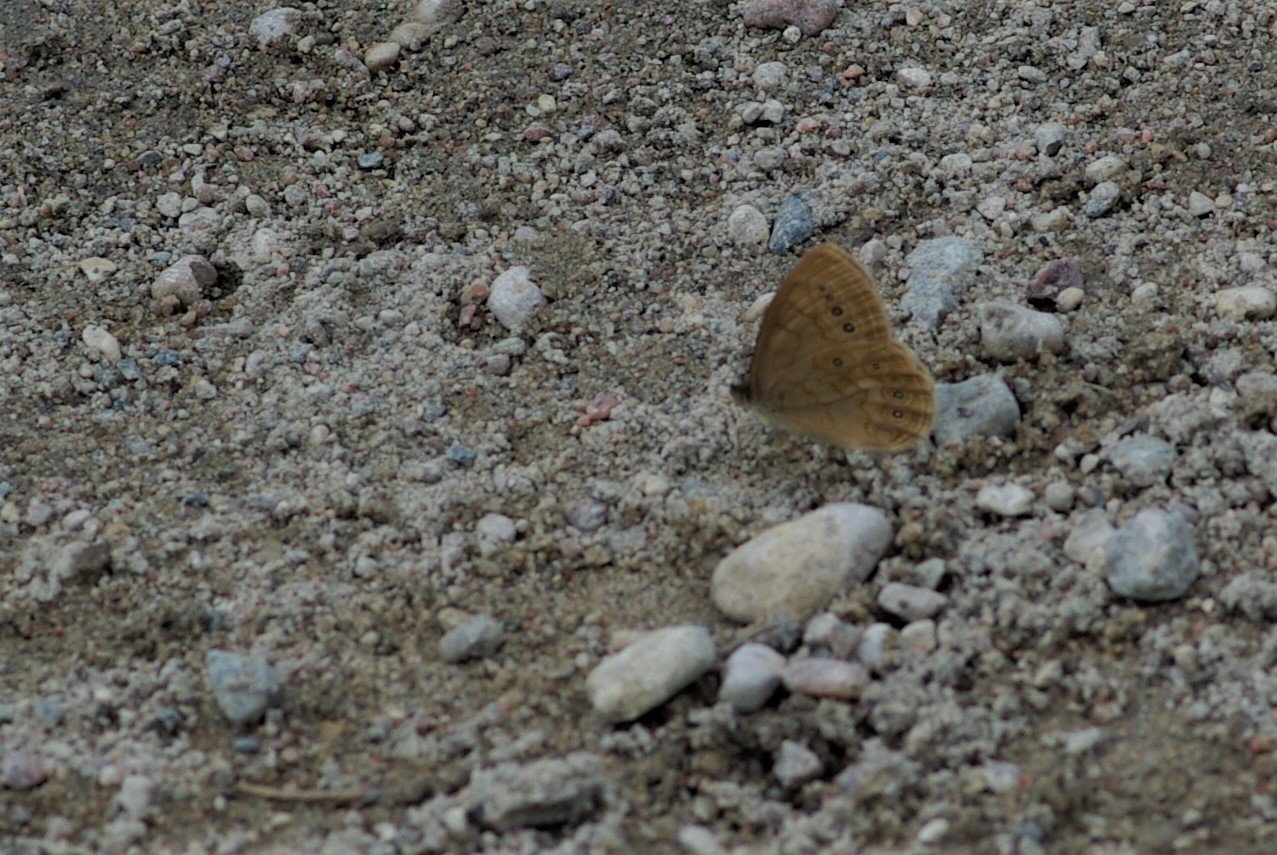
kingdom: Animalia
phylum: Arthropoda
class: Insecta
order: Lepidoptera
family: Nymphalidae
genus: Lethe
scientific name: Lethe eurydice
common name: Eyed Brown
